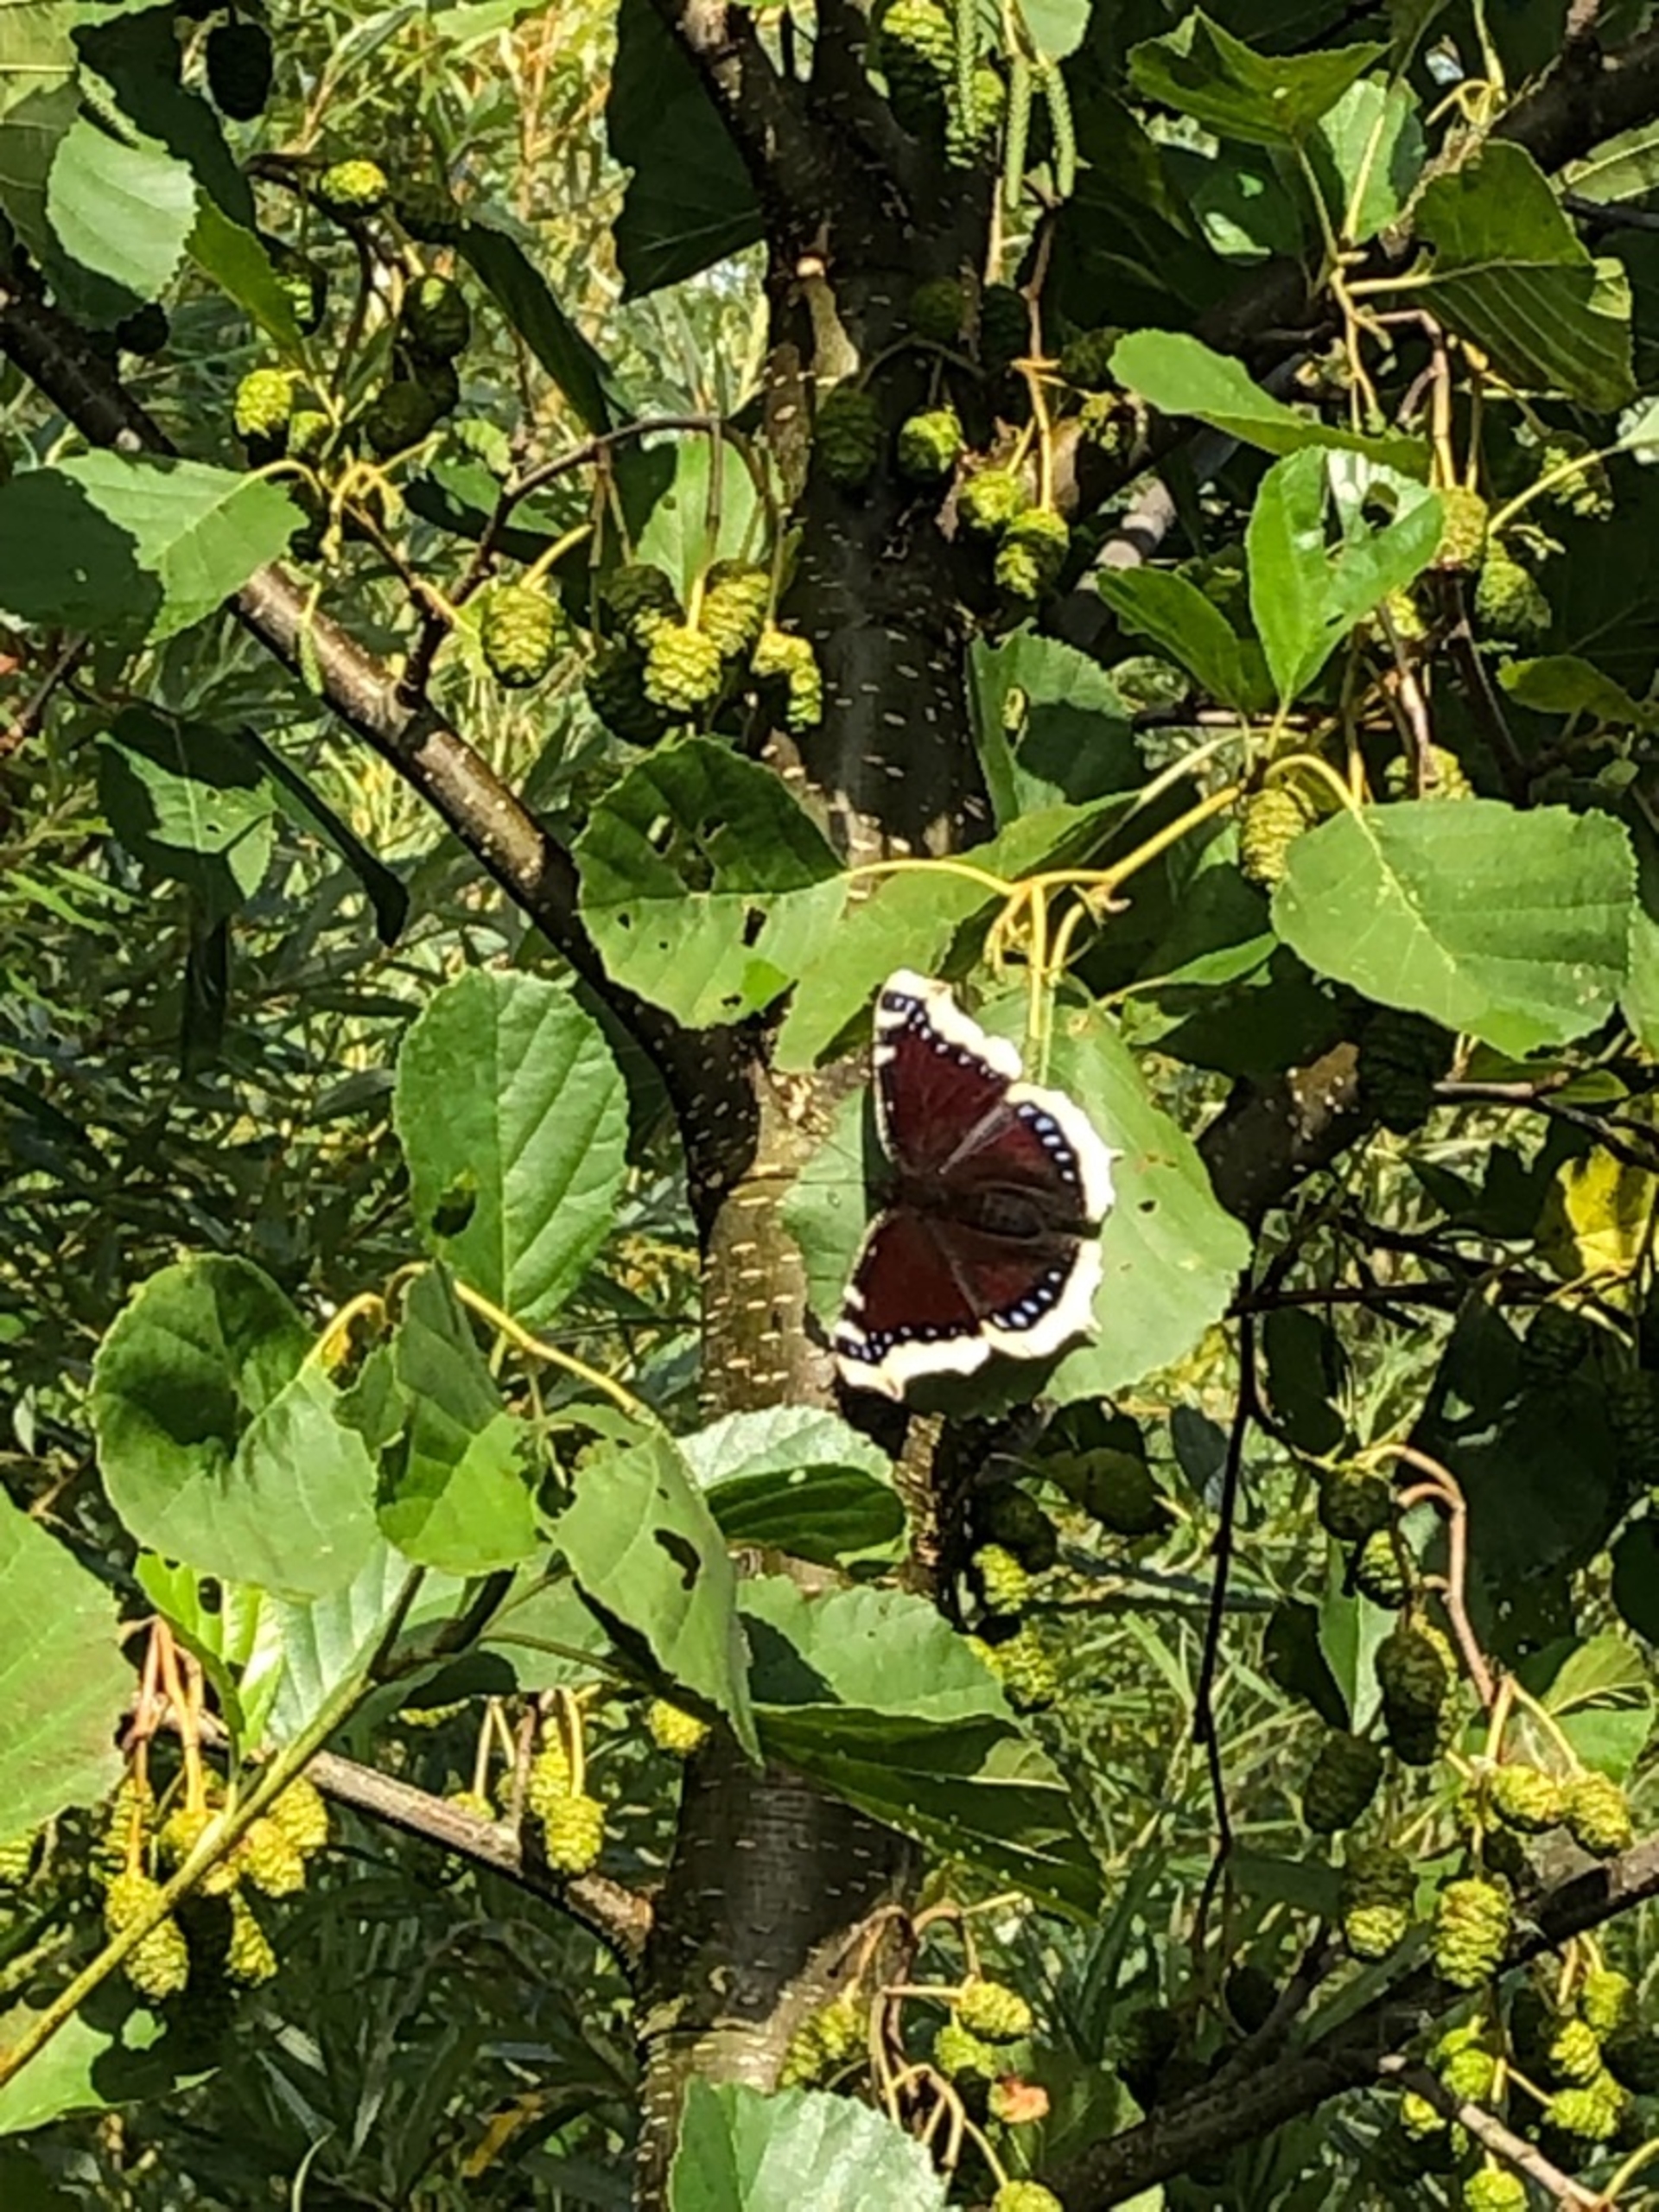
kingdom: Animalia
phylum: Arthropoda
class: Insecta
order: Lepidoptera
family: Nymphalidae
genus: Nymphalis
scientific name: Nymphalis antiopa
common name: Sørgekåbe
